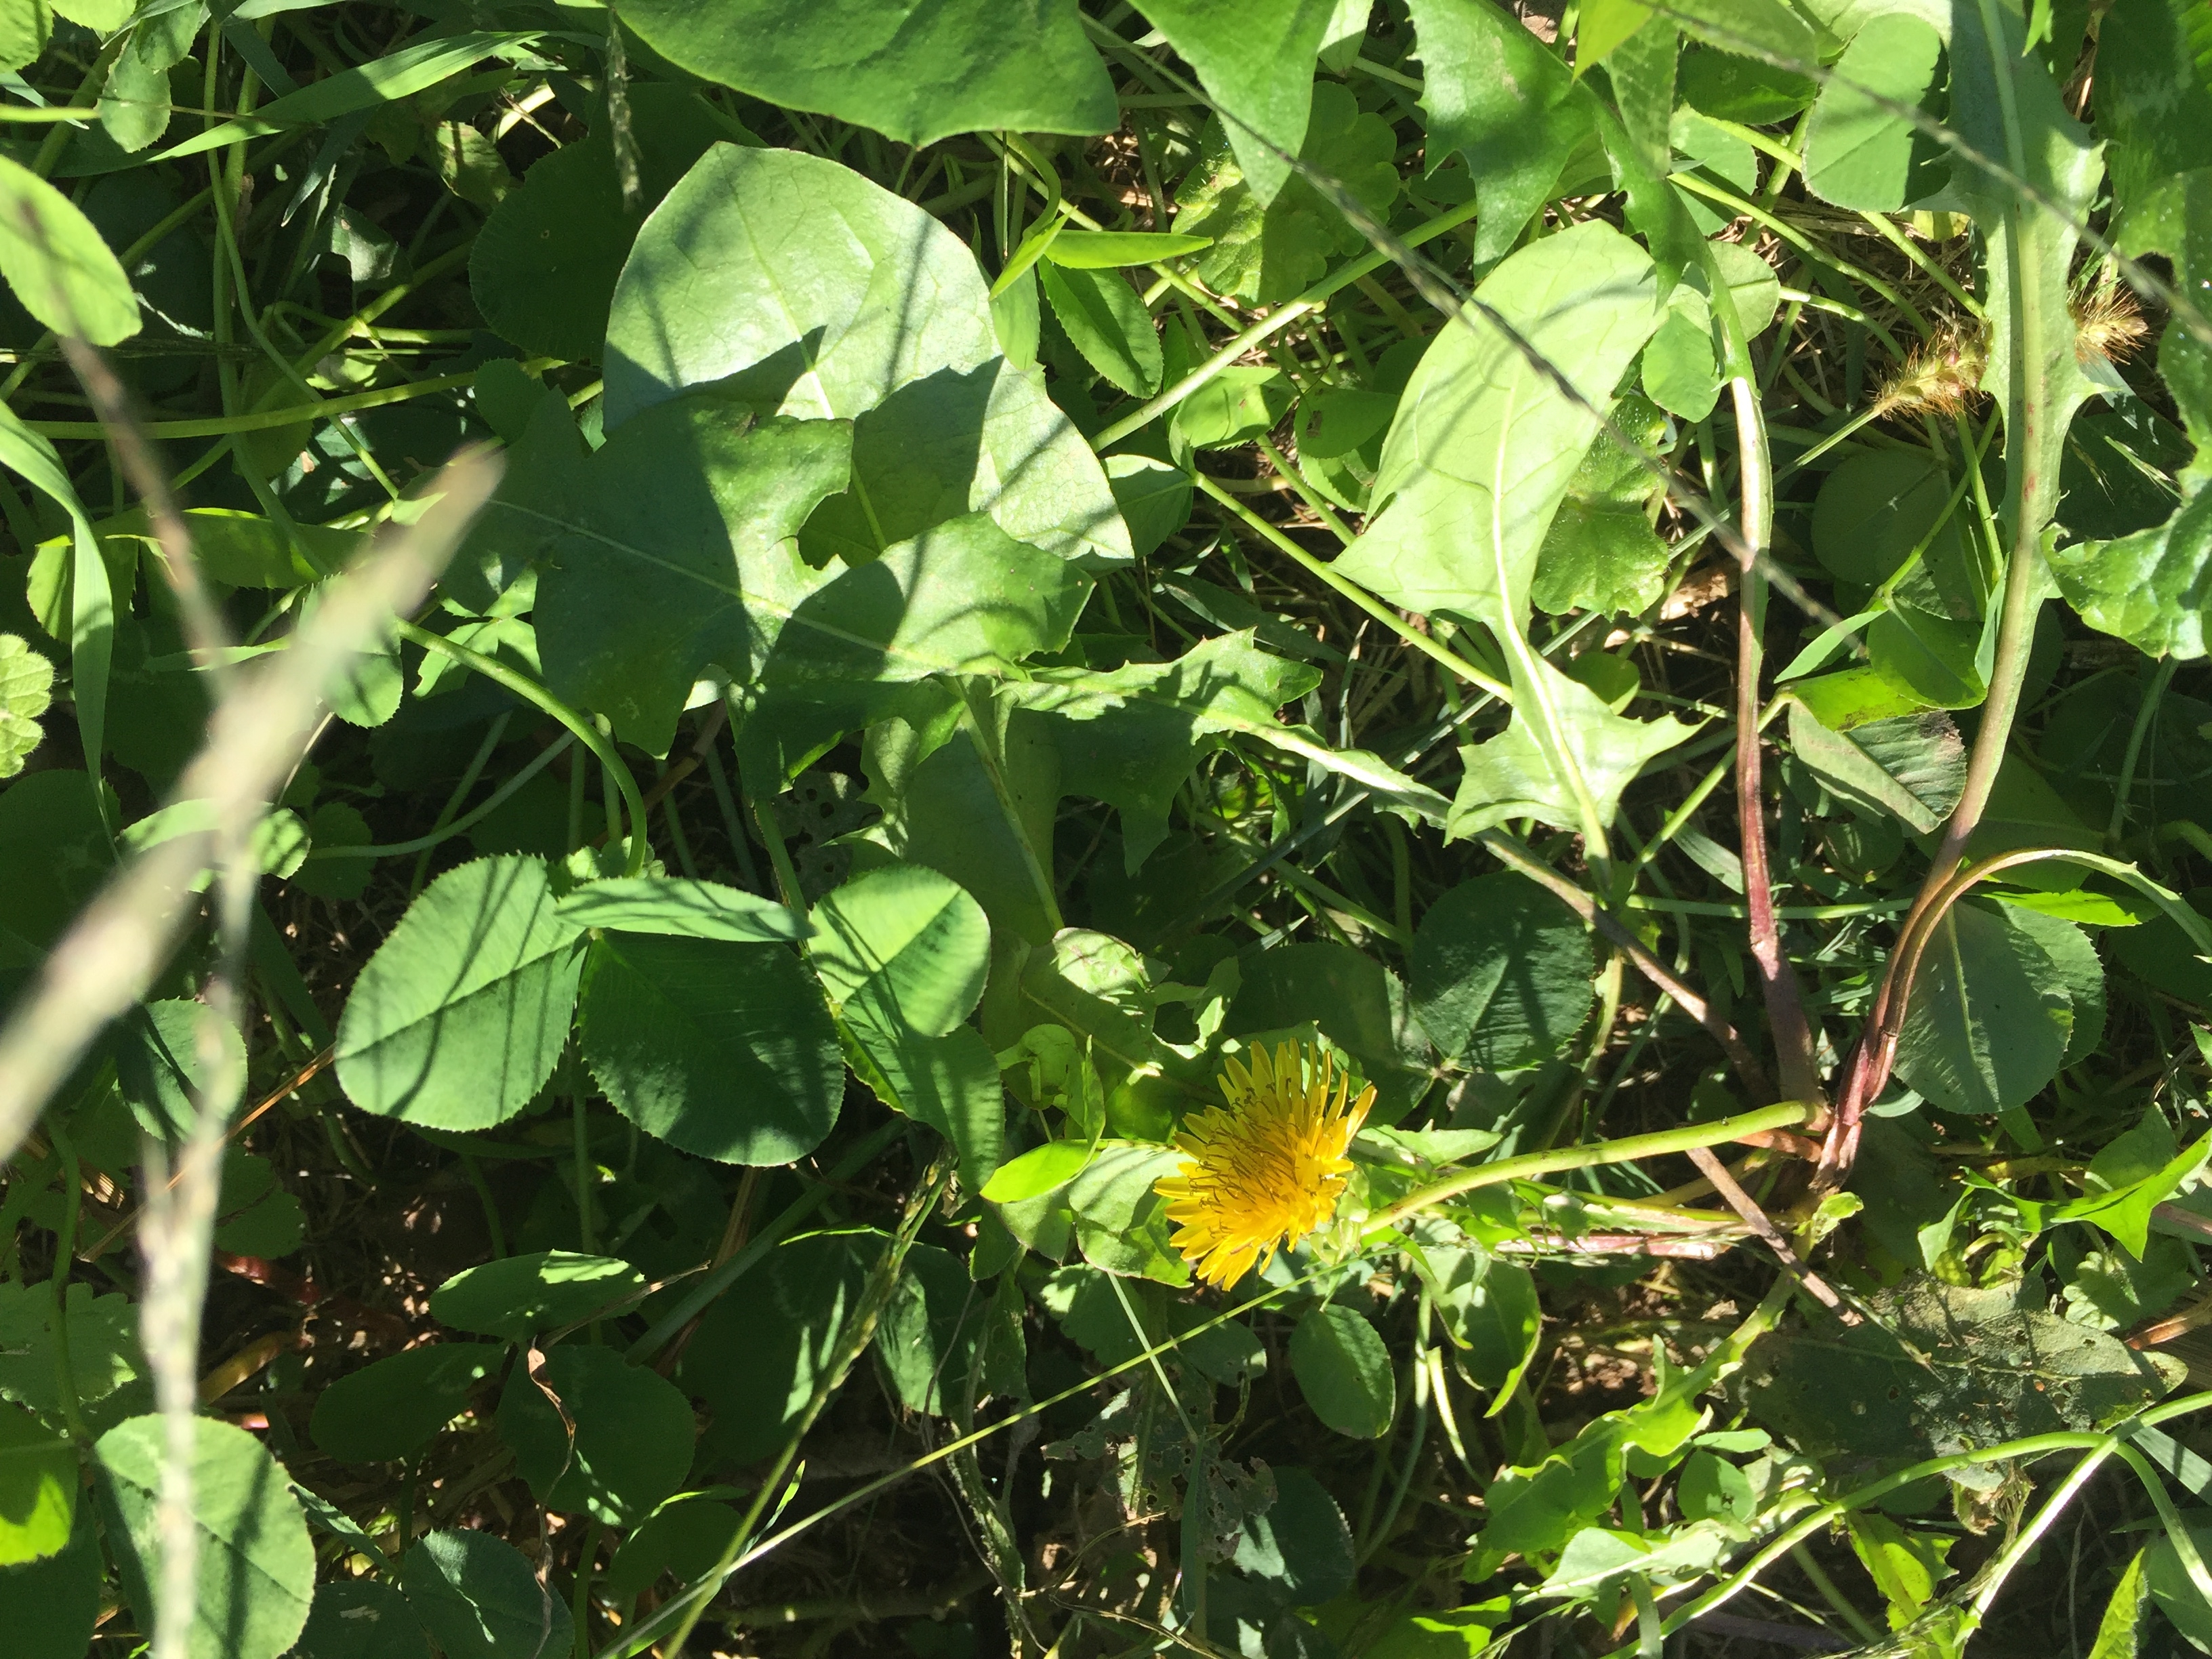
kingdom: Plantae
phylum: Tracheophyta
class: Magnoliopsida
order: Asterales
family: Asteraceae
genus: Taraxacum
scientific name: Taraxacum officinale
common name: Common Dandelion
